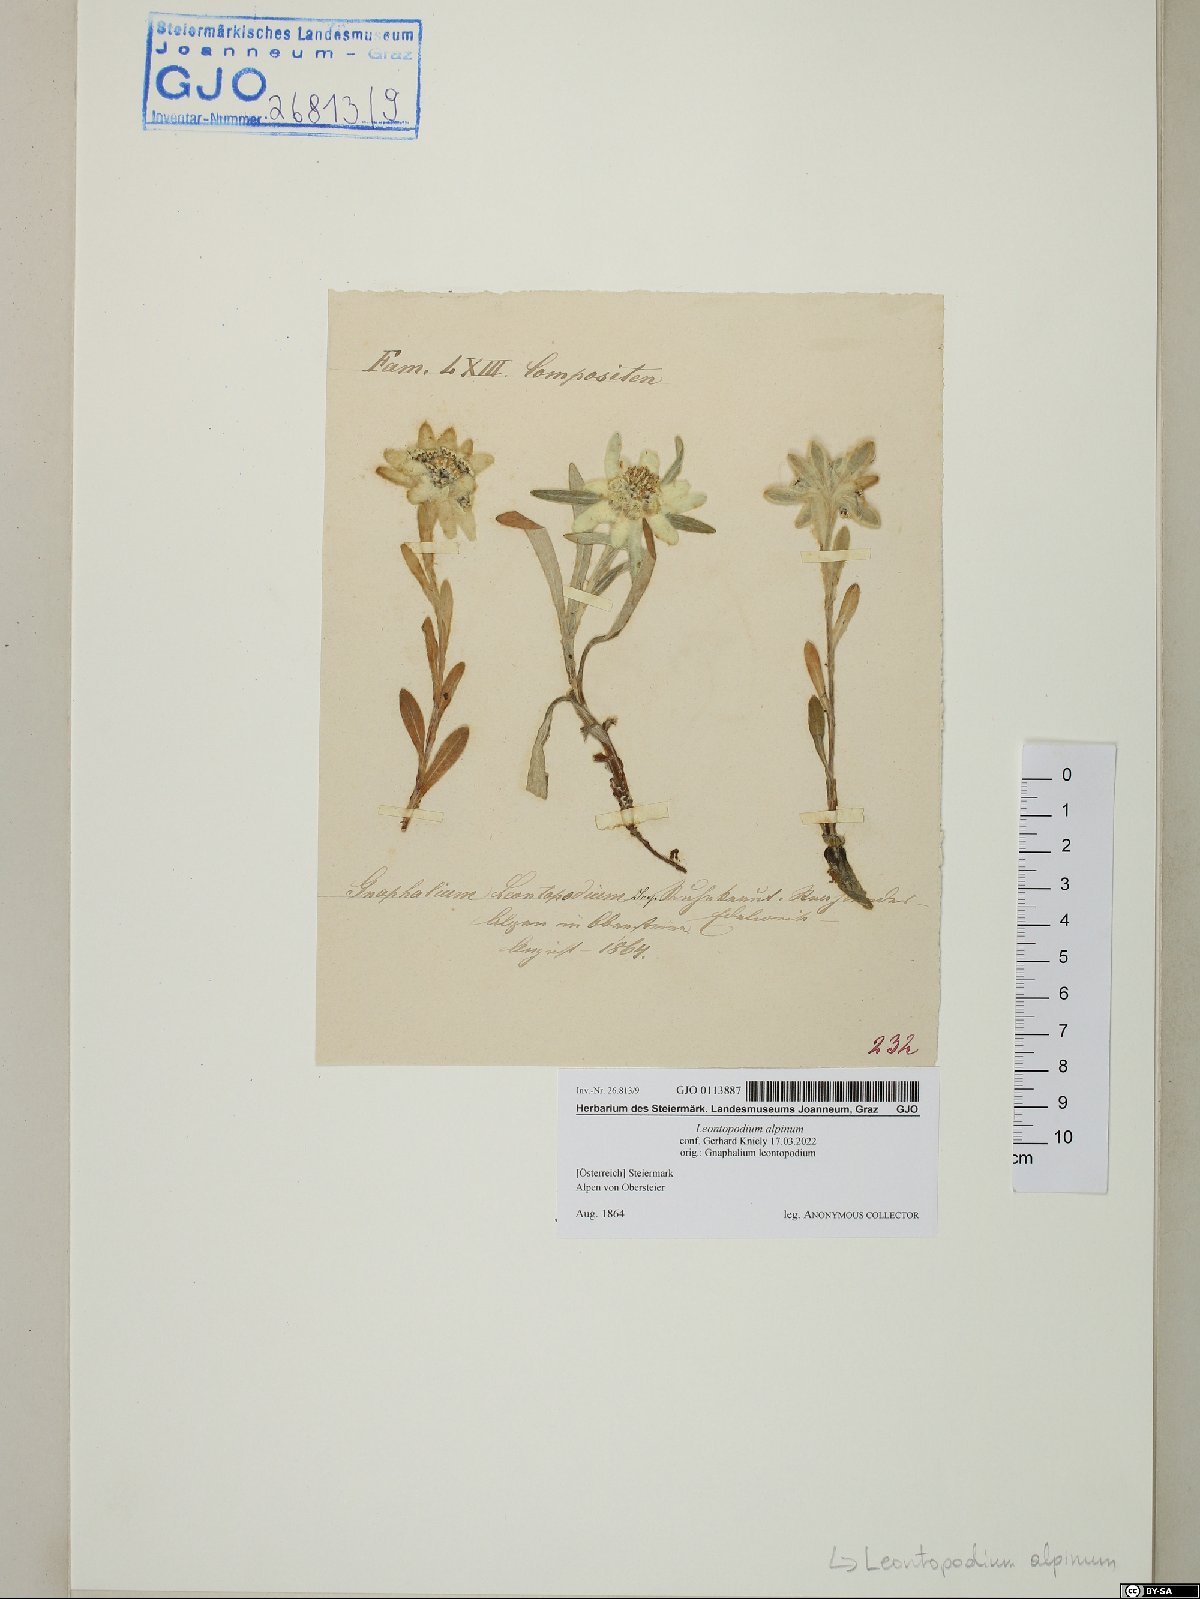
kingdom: Plantae
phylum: Tracheophyta
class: Magnoliopsida
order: Asterales
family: Asteraceae
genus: Leontopodium
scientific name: Leontopodium nivale
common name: Edelweiss
